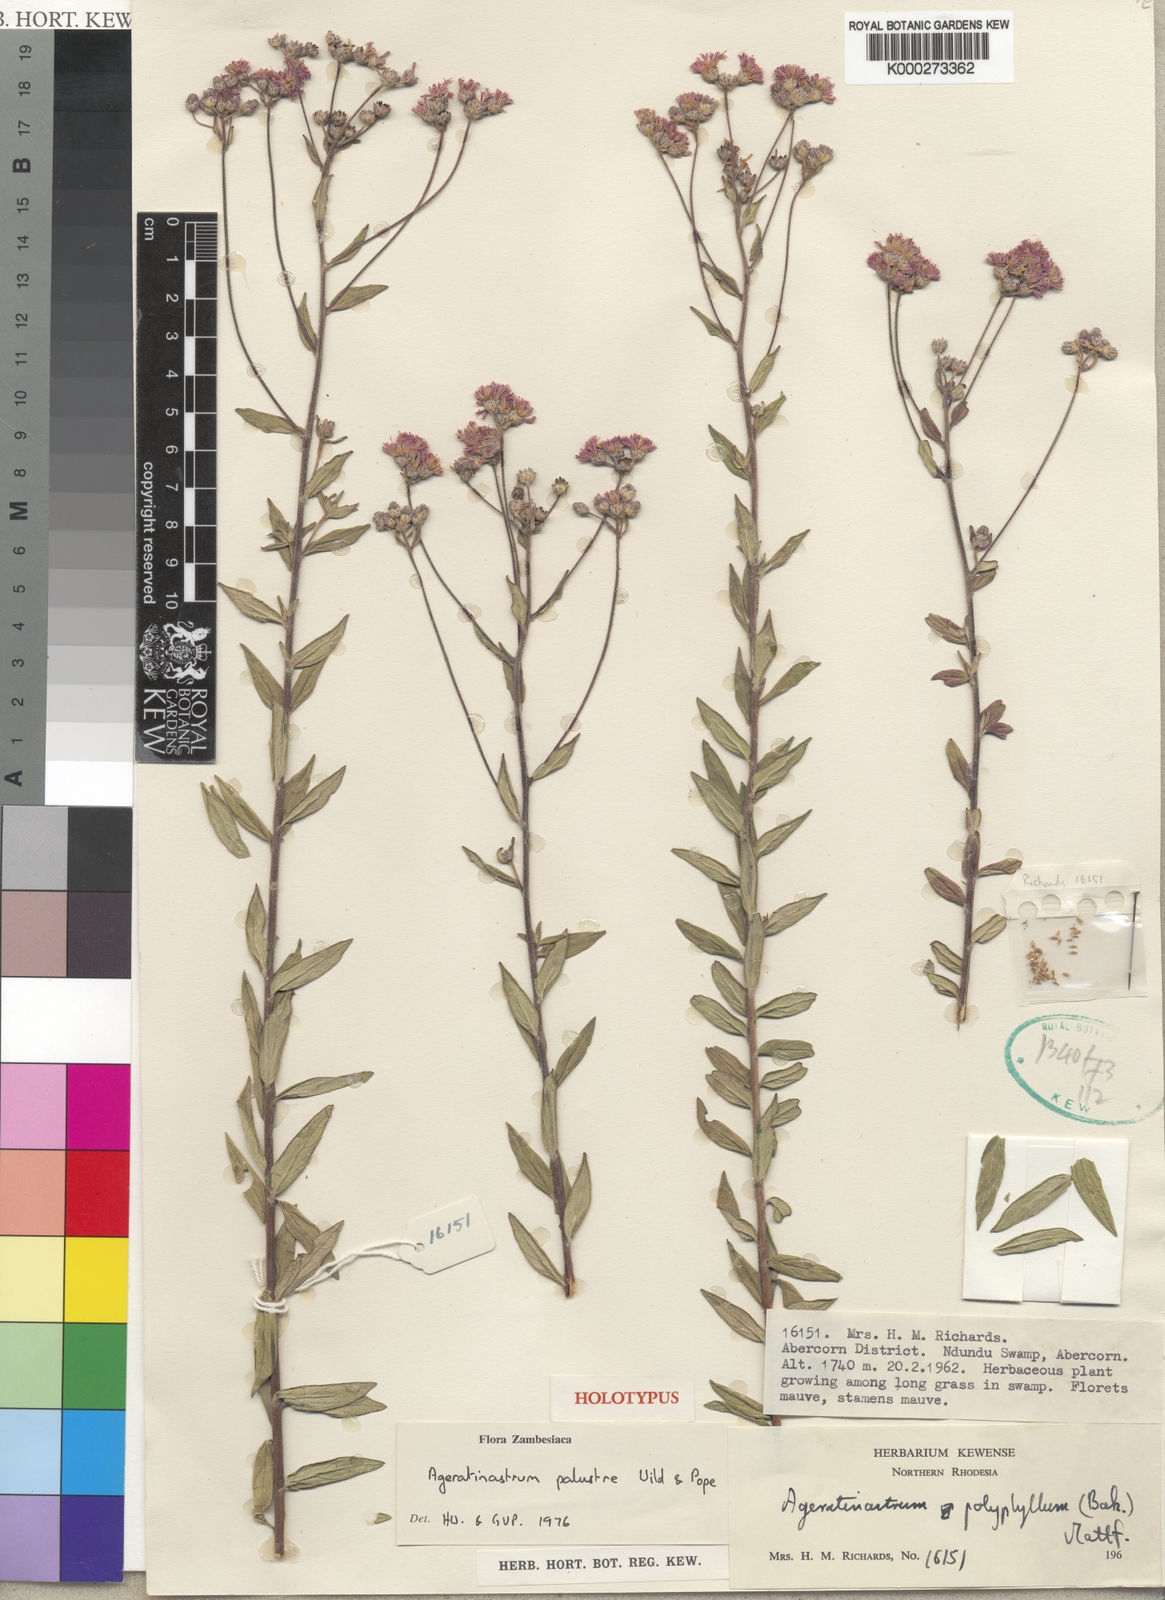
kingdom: Plantae
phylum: Tracheophyta
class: Magnoliopsida
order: Asterales
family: Asteraceae
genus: Ageratinastrum
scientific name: Ageratinastrum palustre
